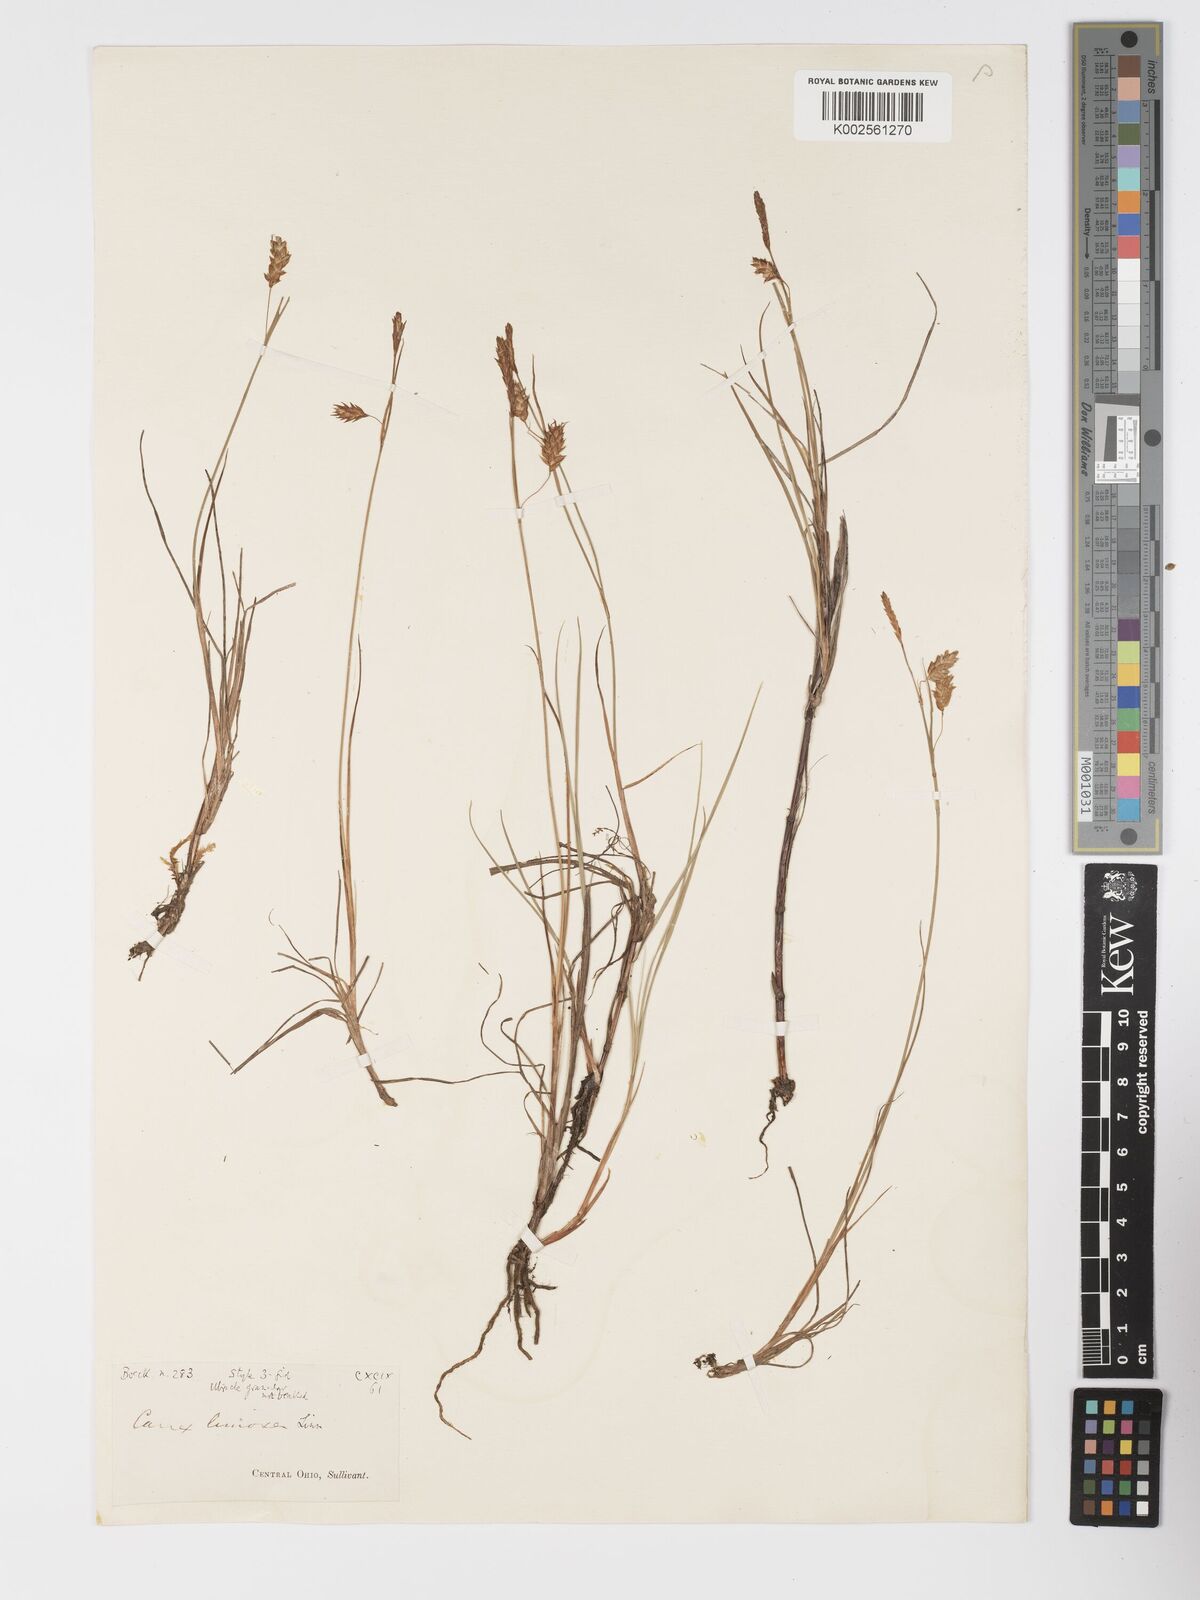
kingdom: Plantae
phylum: Tracheophyta
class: Liliopsida
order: Poales
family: Cyperaceae
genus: Carex
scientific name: Carex limosa
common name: Bog sedge
